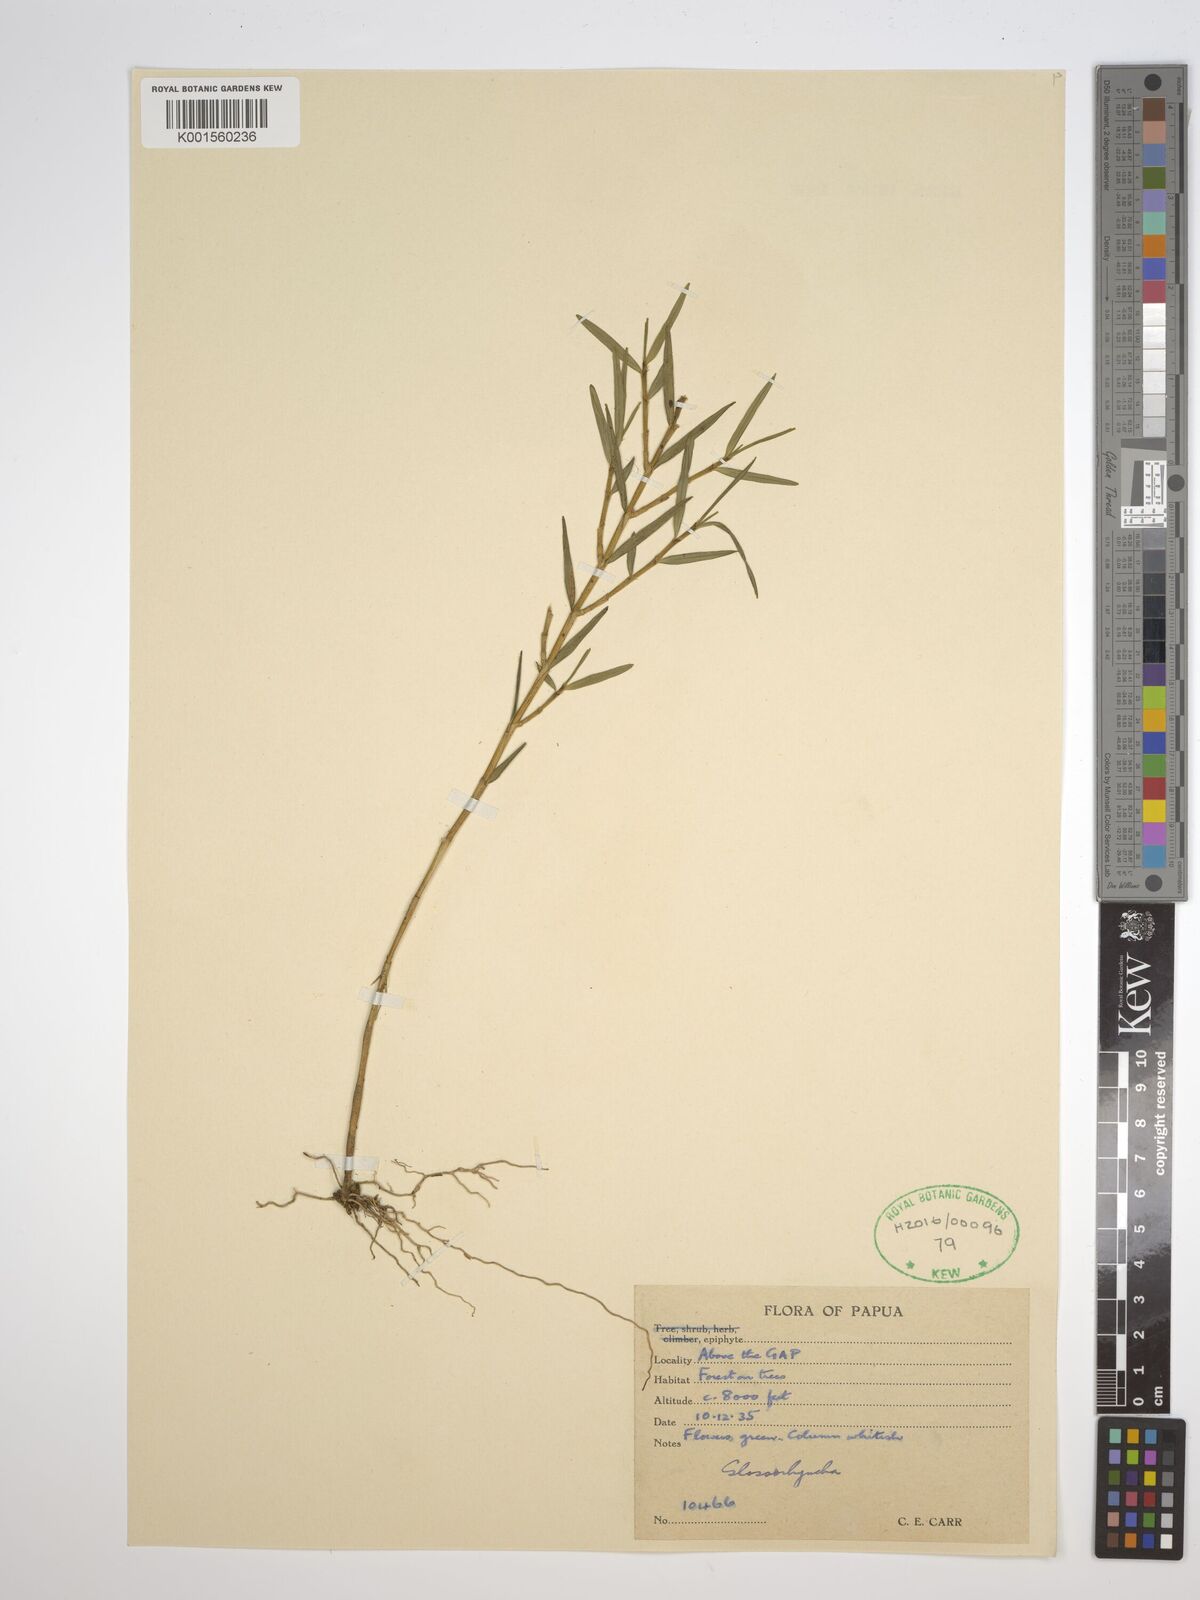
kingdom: Plantae
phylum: Tracheophyta
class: Liliopsida
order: Asparagales
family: Orchidaceae
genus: Glomera
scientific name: Glomera
